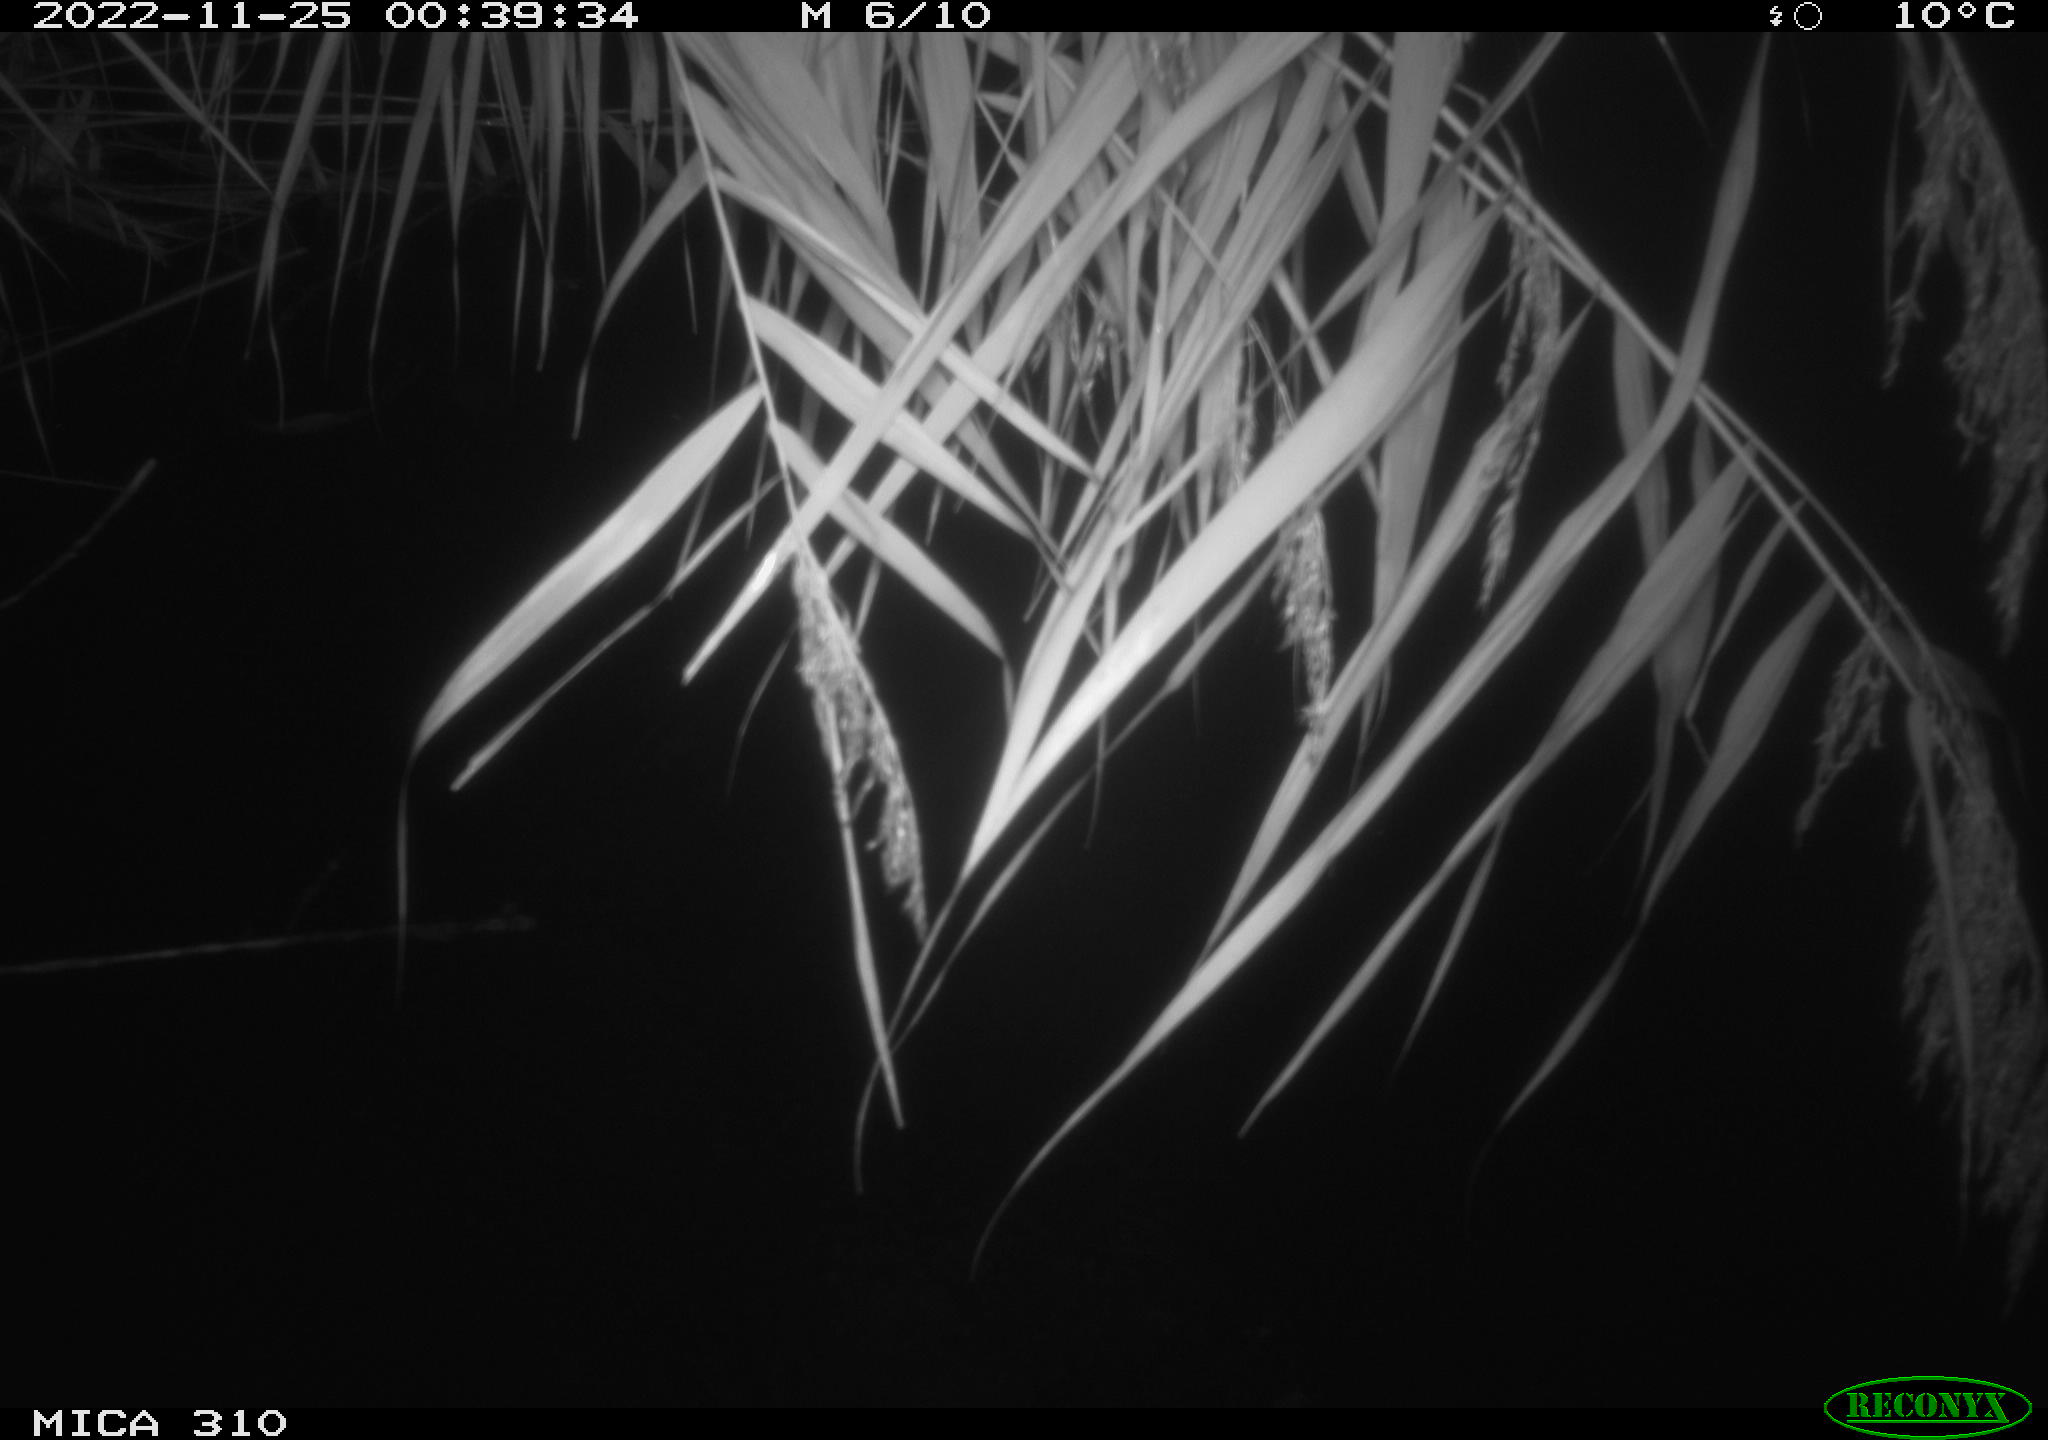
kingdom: Animalia
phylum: Chordata
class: Aves
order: Anseriformes
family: Anatidae
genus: Anas
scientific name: Anas
